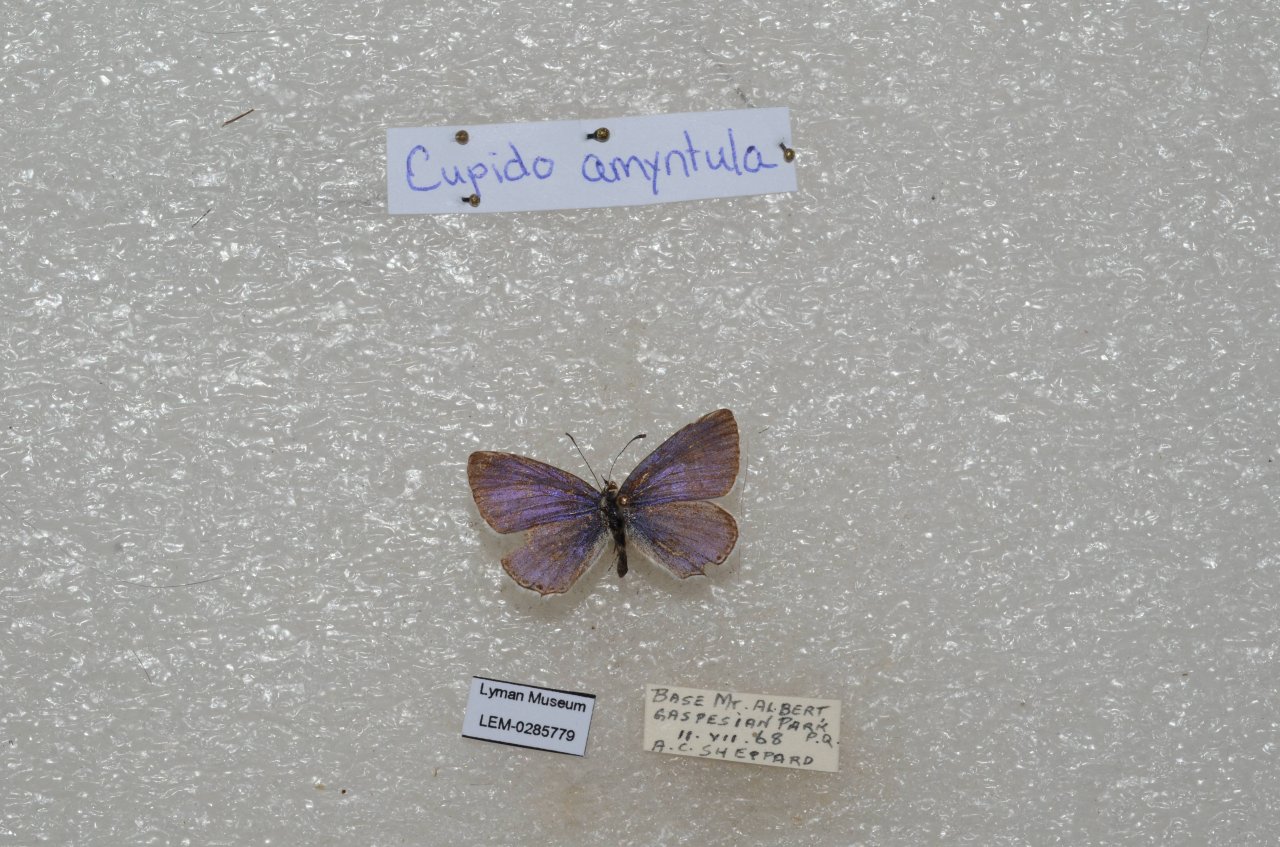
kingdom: Animalia
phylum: Arthropoda
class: Insecta
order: Lepidoptera
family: Lycaenidae
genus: Elkalyce
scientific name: Elkalyce amyntula
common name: Western Tailed-Blue
